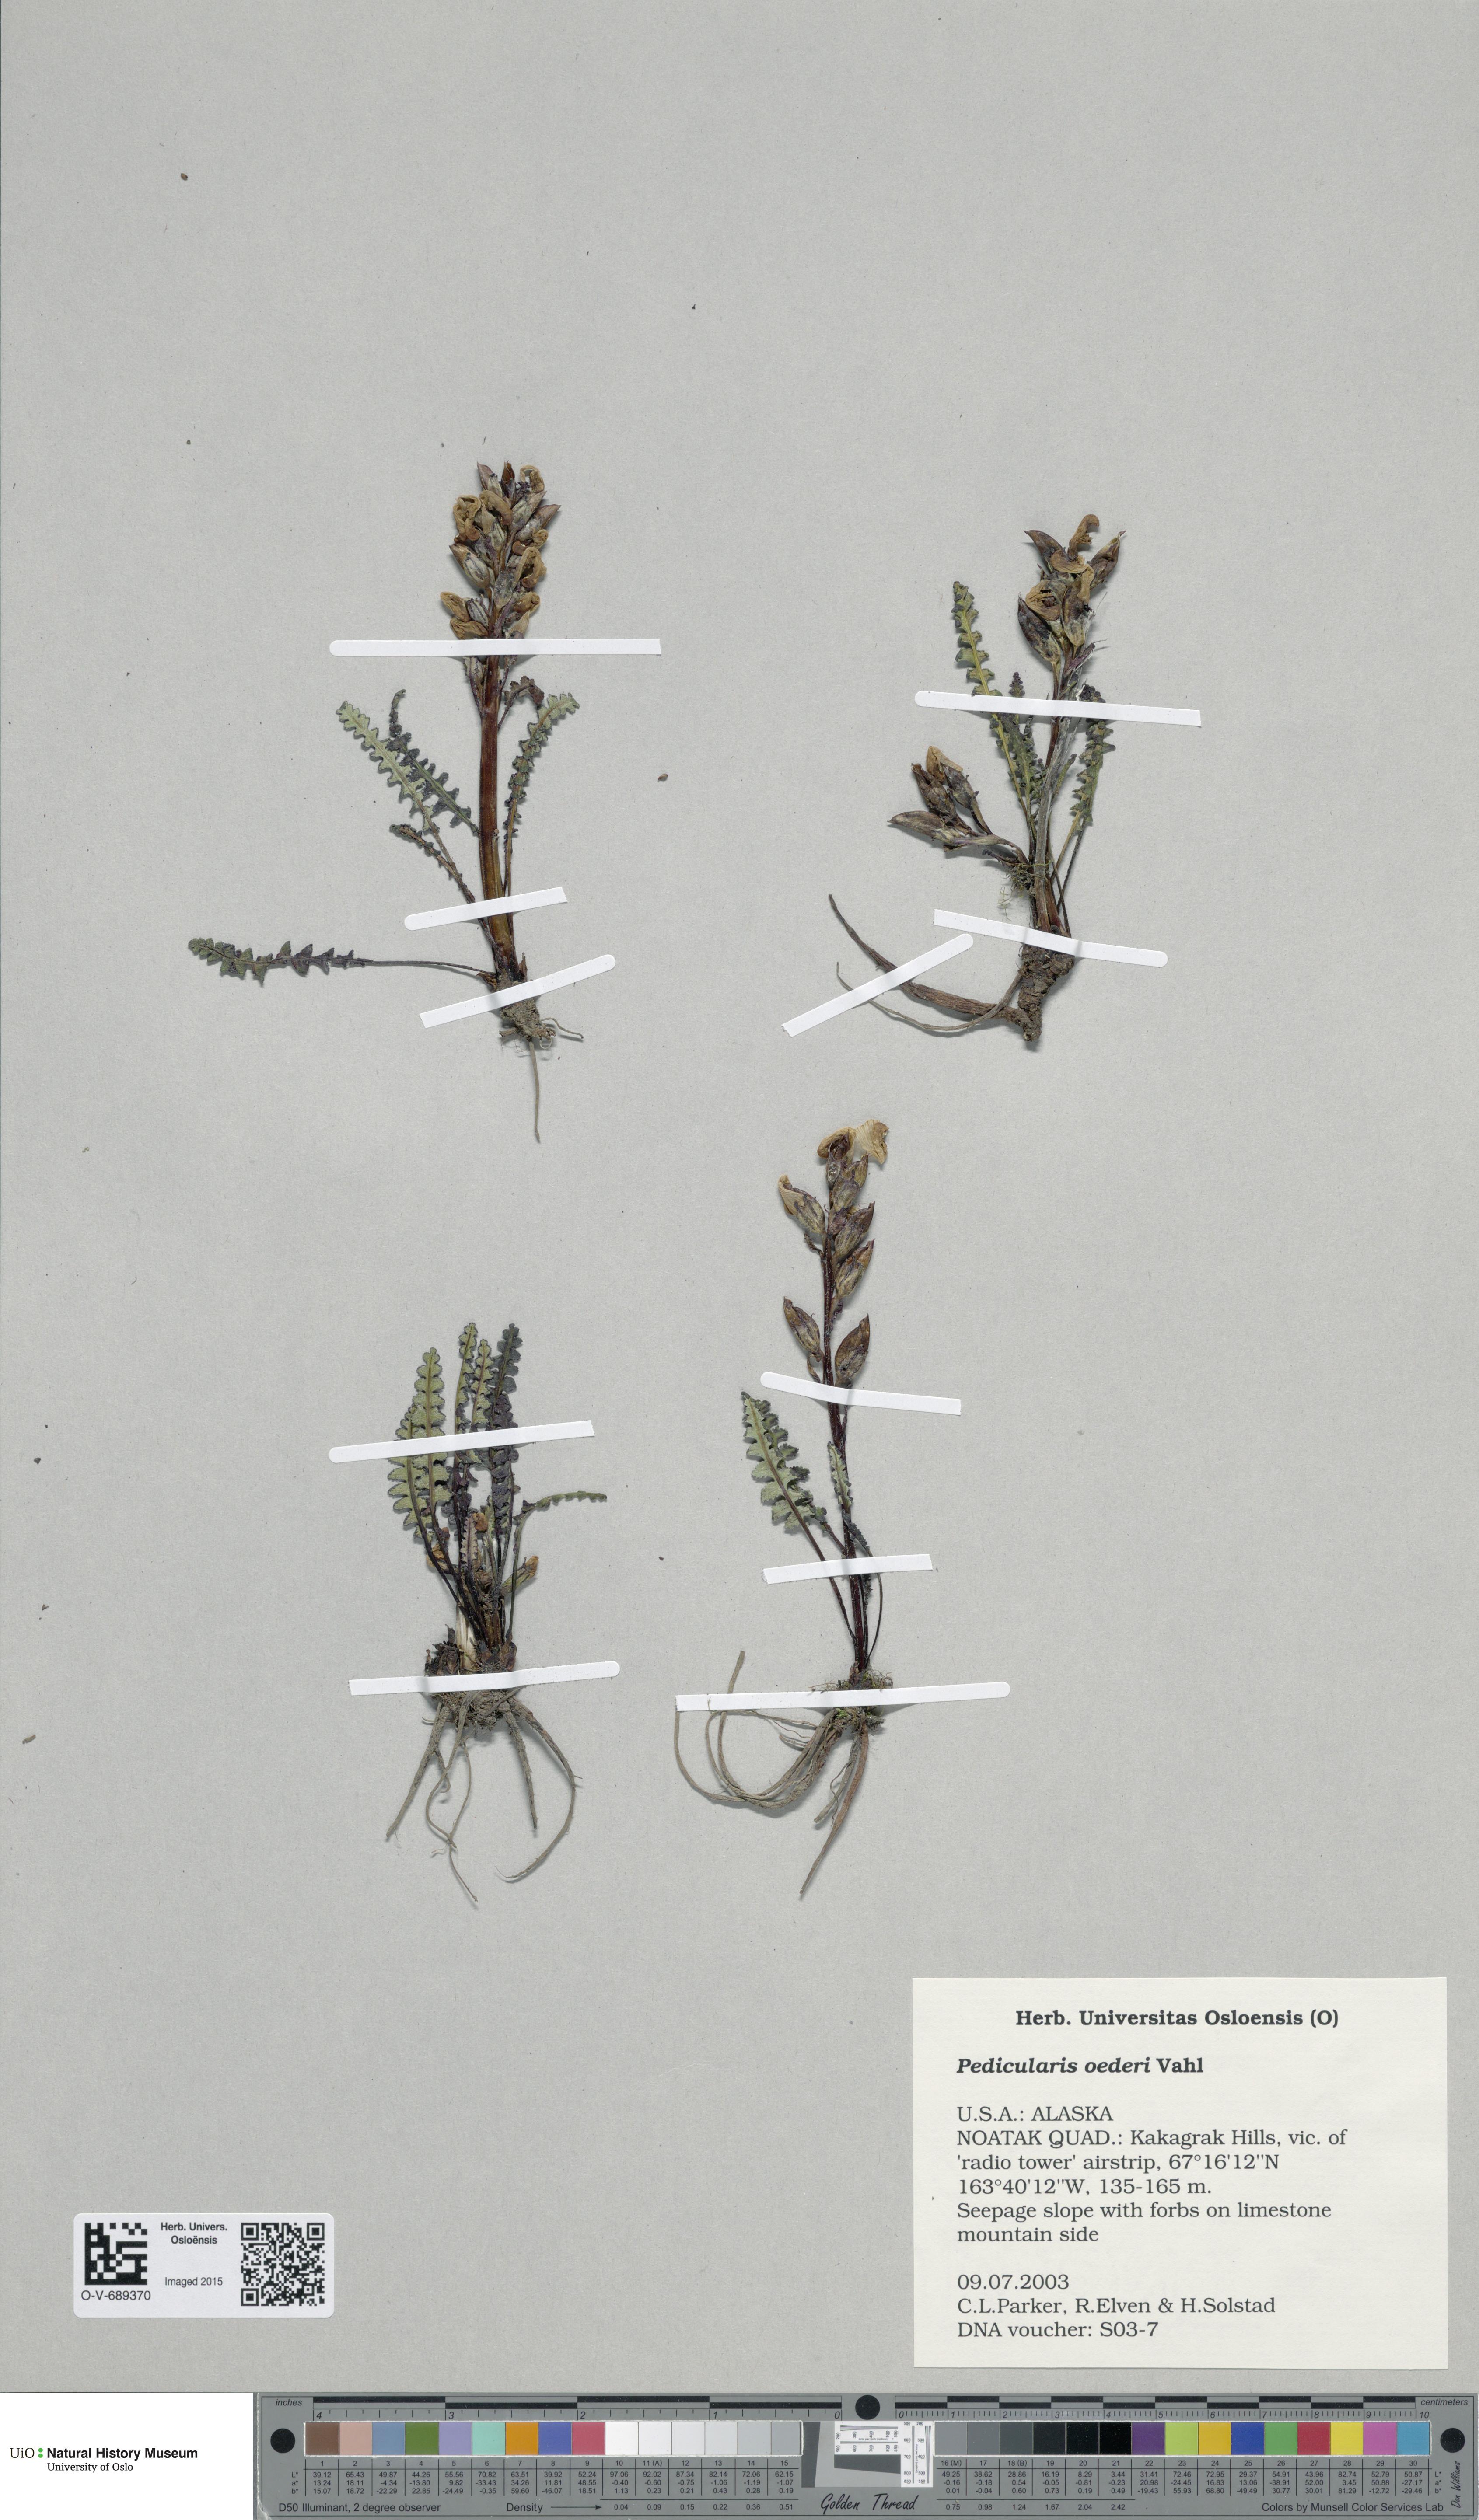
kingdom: Plantae
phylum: Tracheophyta
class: Magnoliopsida
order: Lamiales
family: Orobanchaceae
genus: Pedicularis
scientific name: Pedicularis oederi
